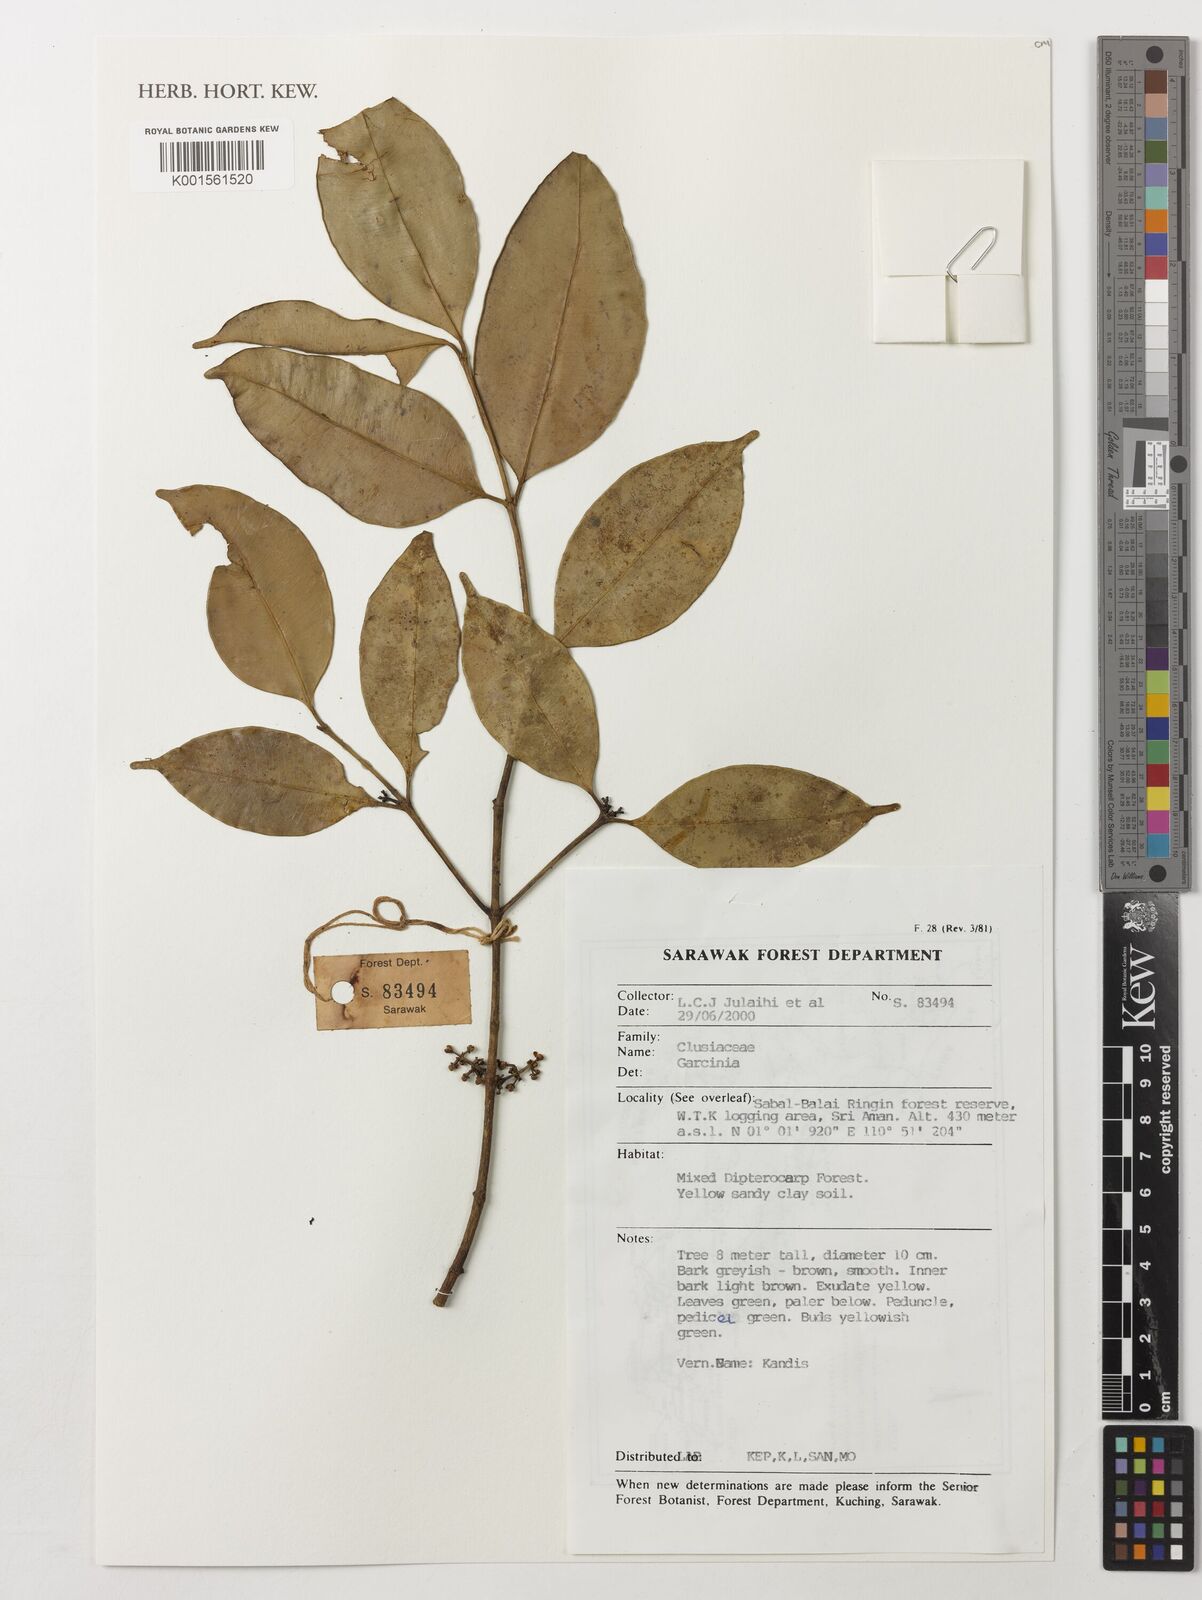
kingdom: Plantae
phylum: Tracheophyta
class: Magnoliopsida
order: Malpighiales
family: Clusiaceae
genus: Garcinia
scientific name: Garcinia
